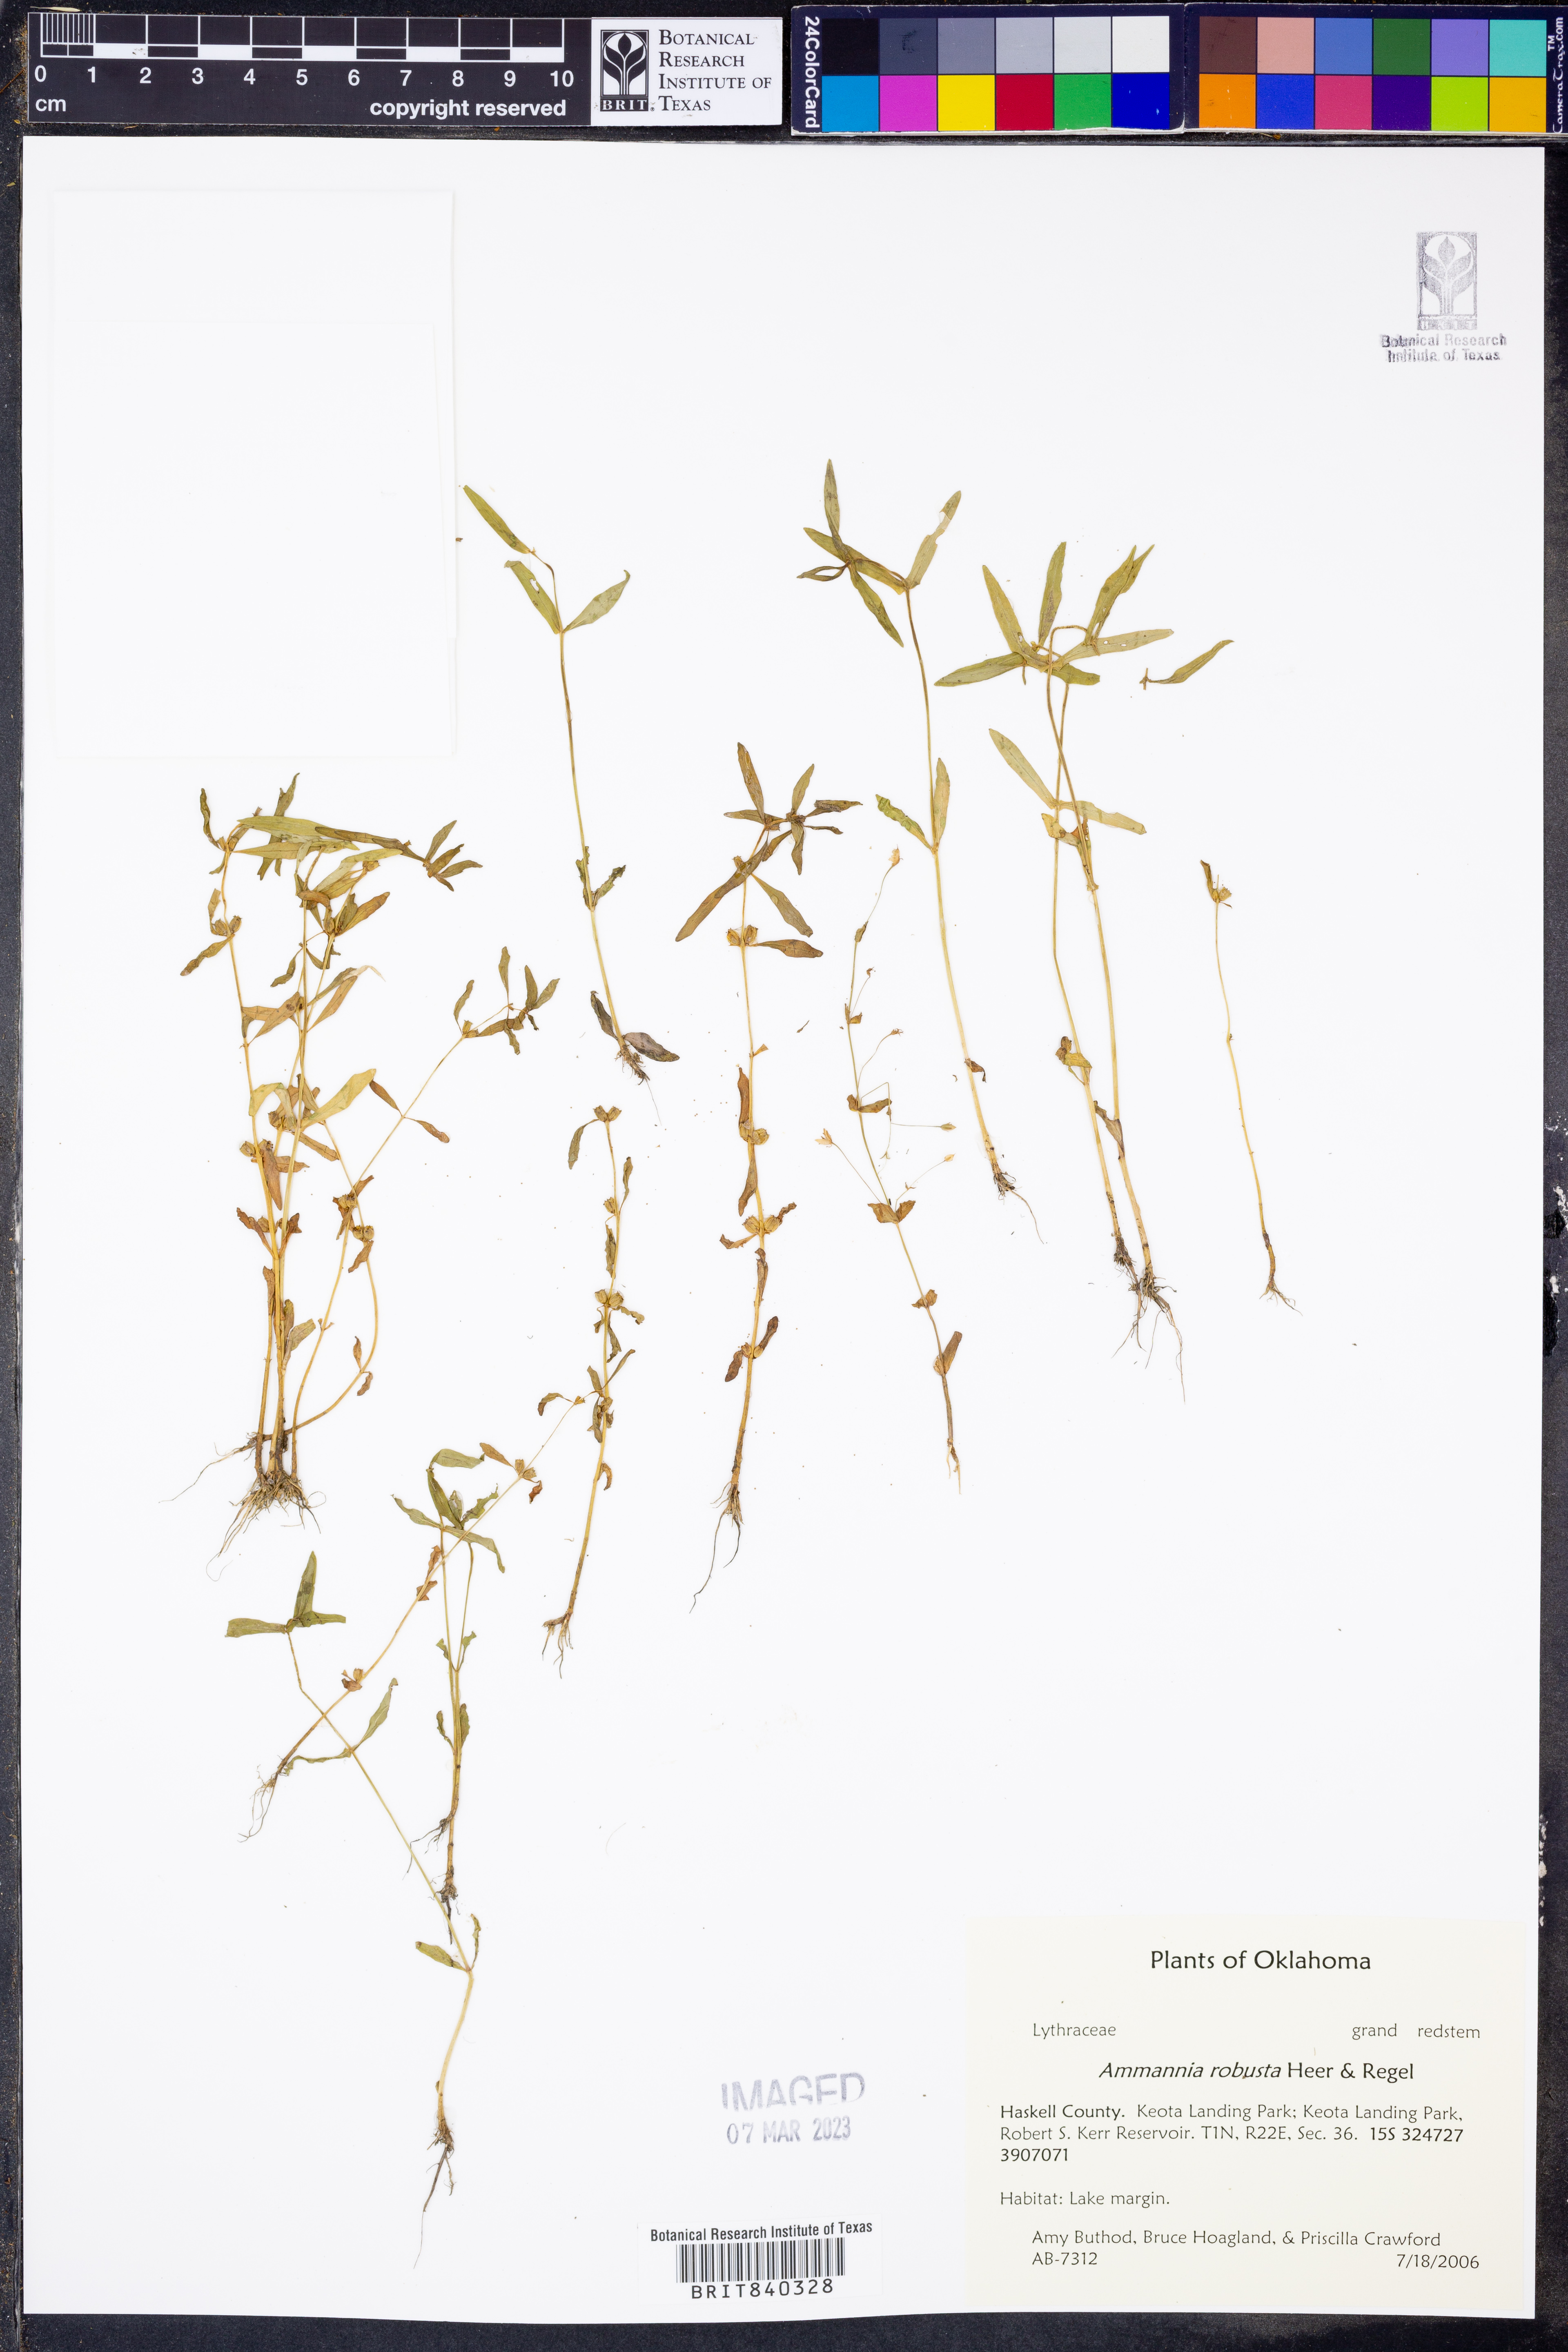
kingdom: Plantae
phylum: Tracheophyta
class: Magnoliopsida
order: Myrtales
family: Lythraceae
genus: Ammannia
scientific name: Ammannia robusta
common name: Grand ammannia
